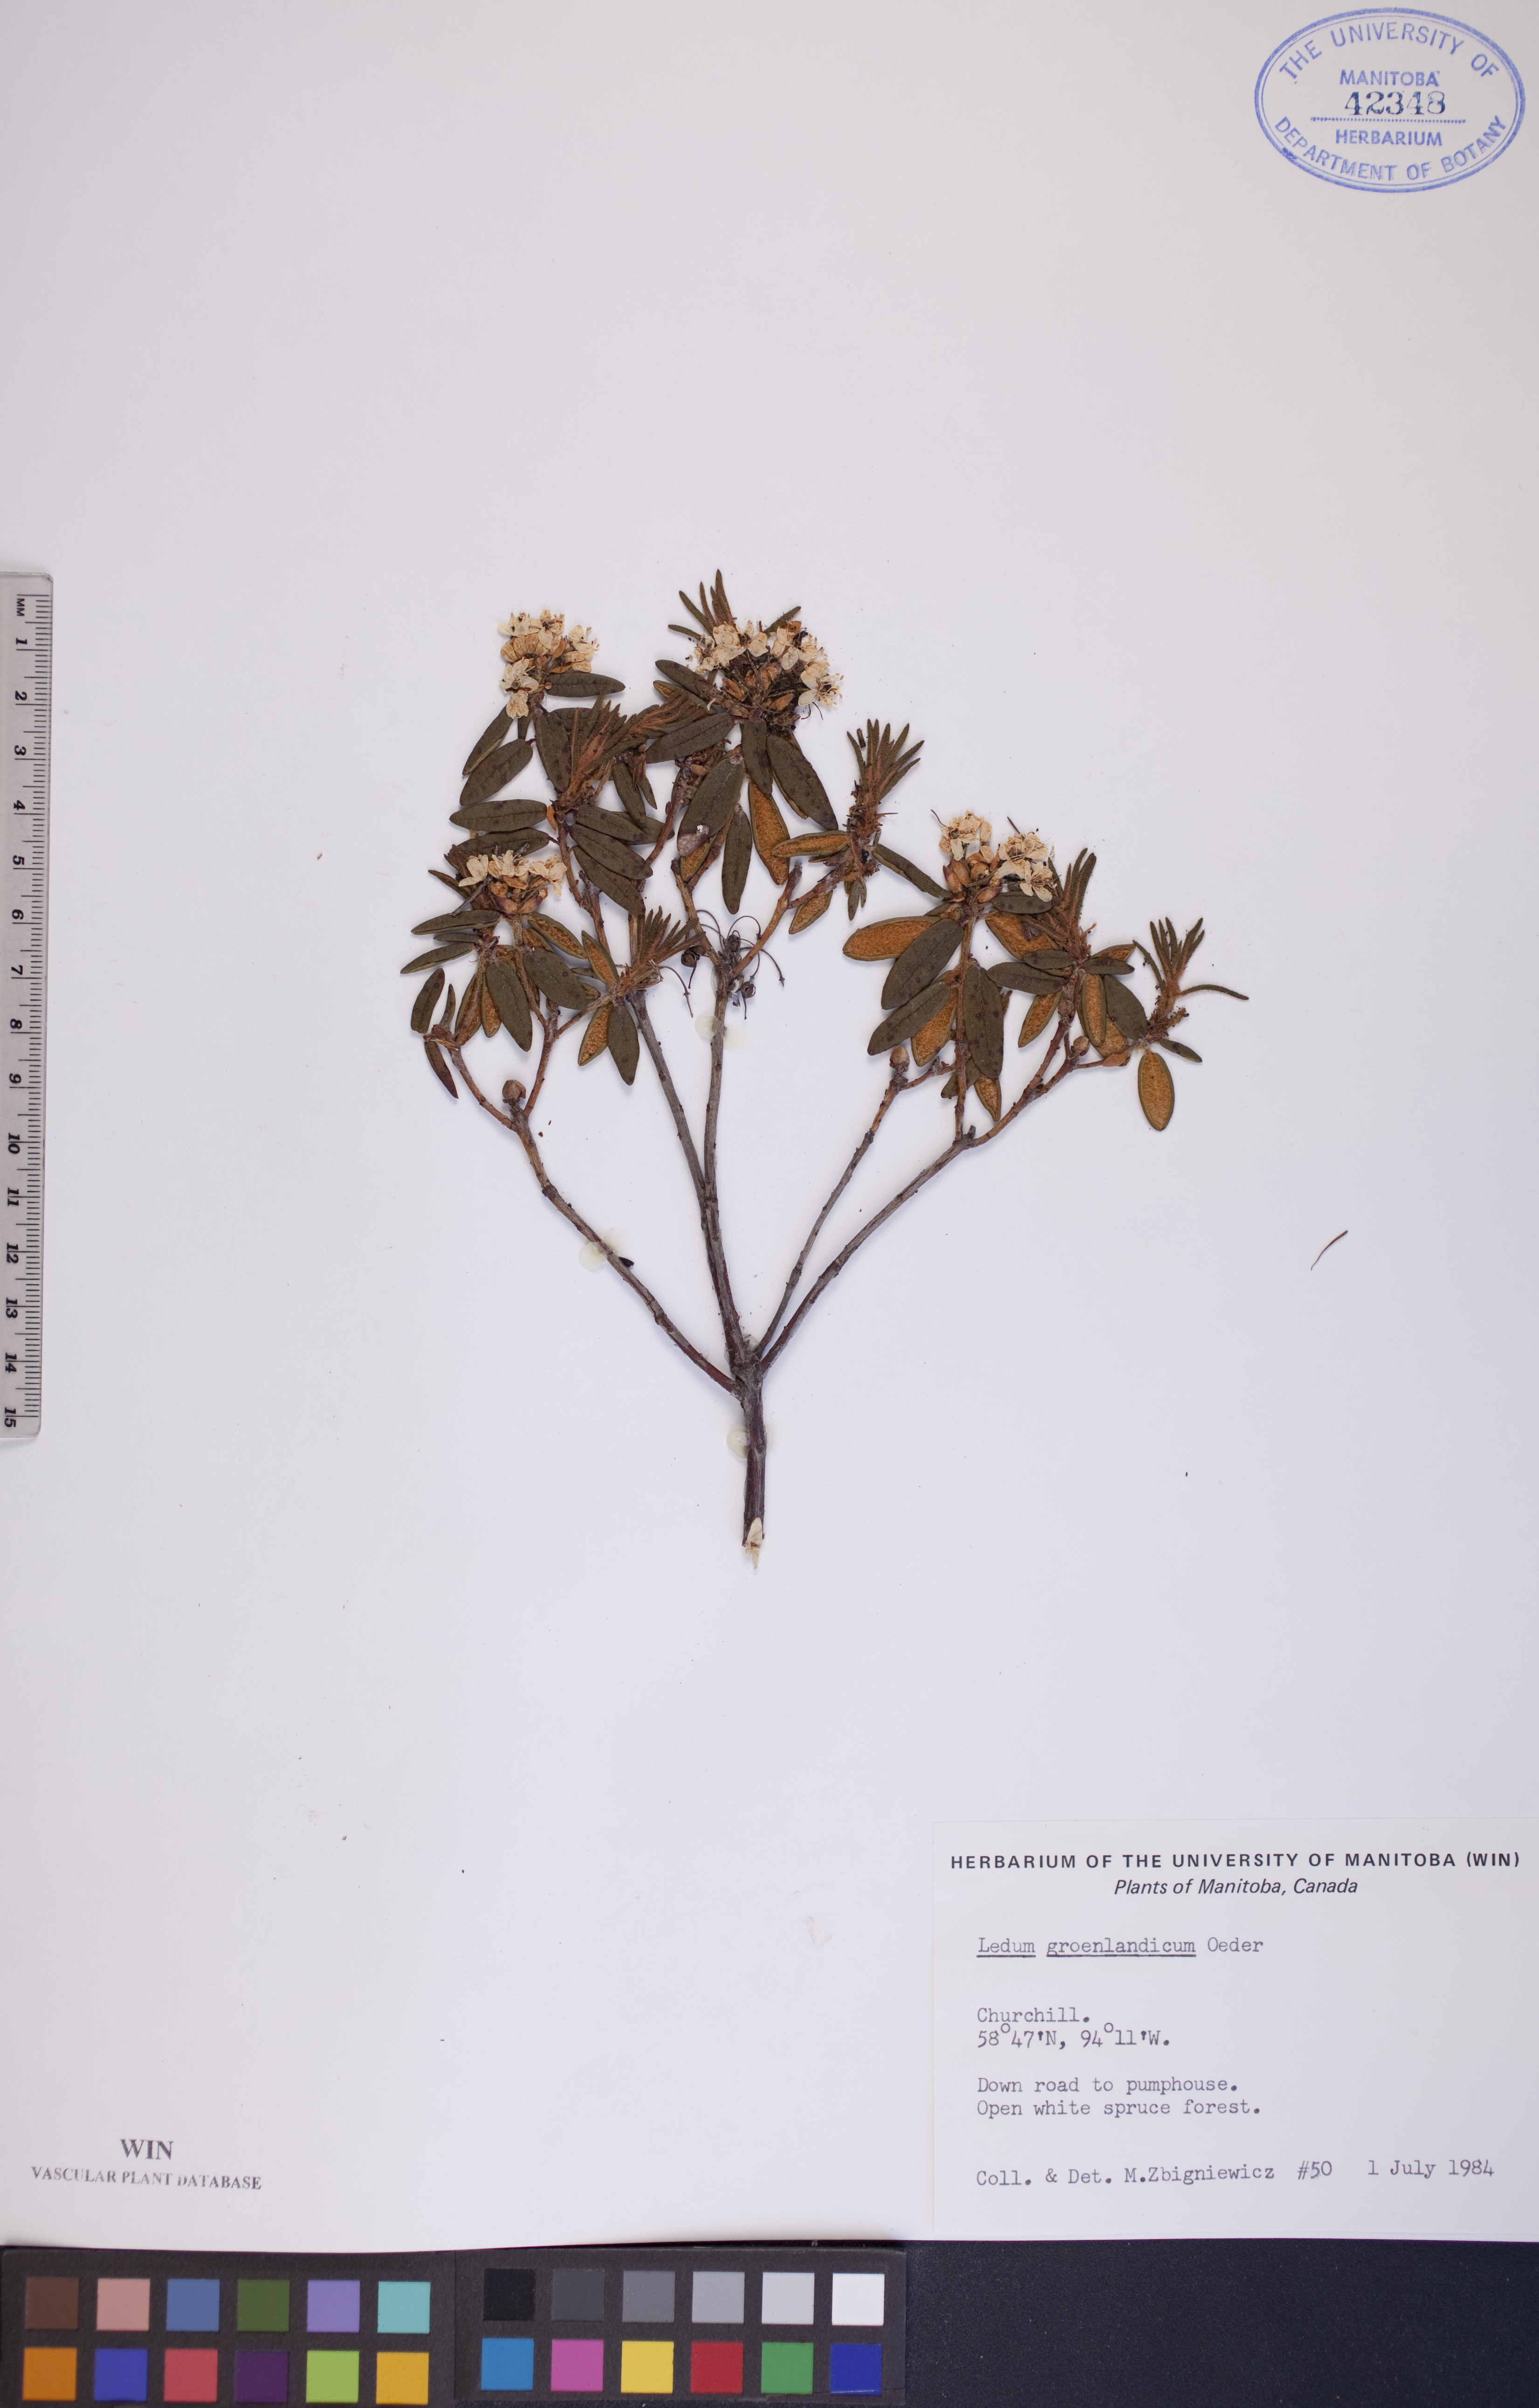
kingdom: Plantae
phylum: Tracheophyta
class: Magnoliopsida
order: Ericales
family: Ericaceae
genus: Rhododendron
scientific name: Rhododendron groenlandicum
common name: Bog labrador tea
